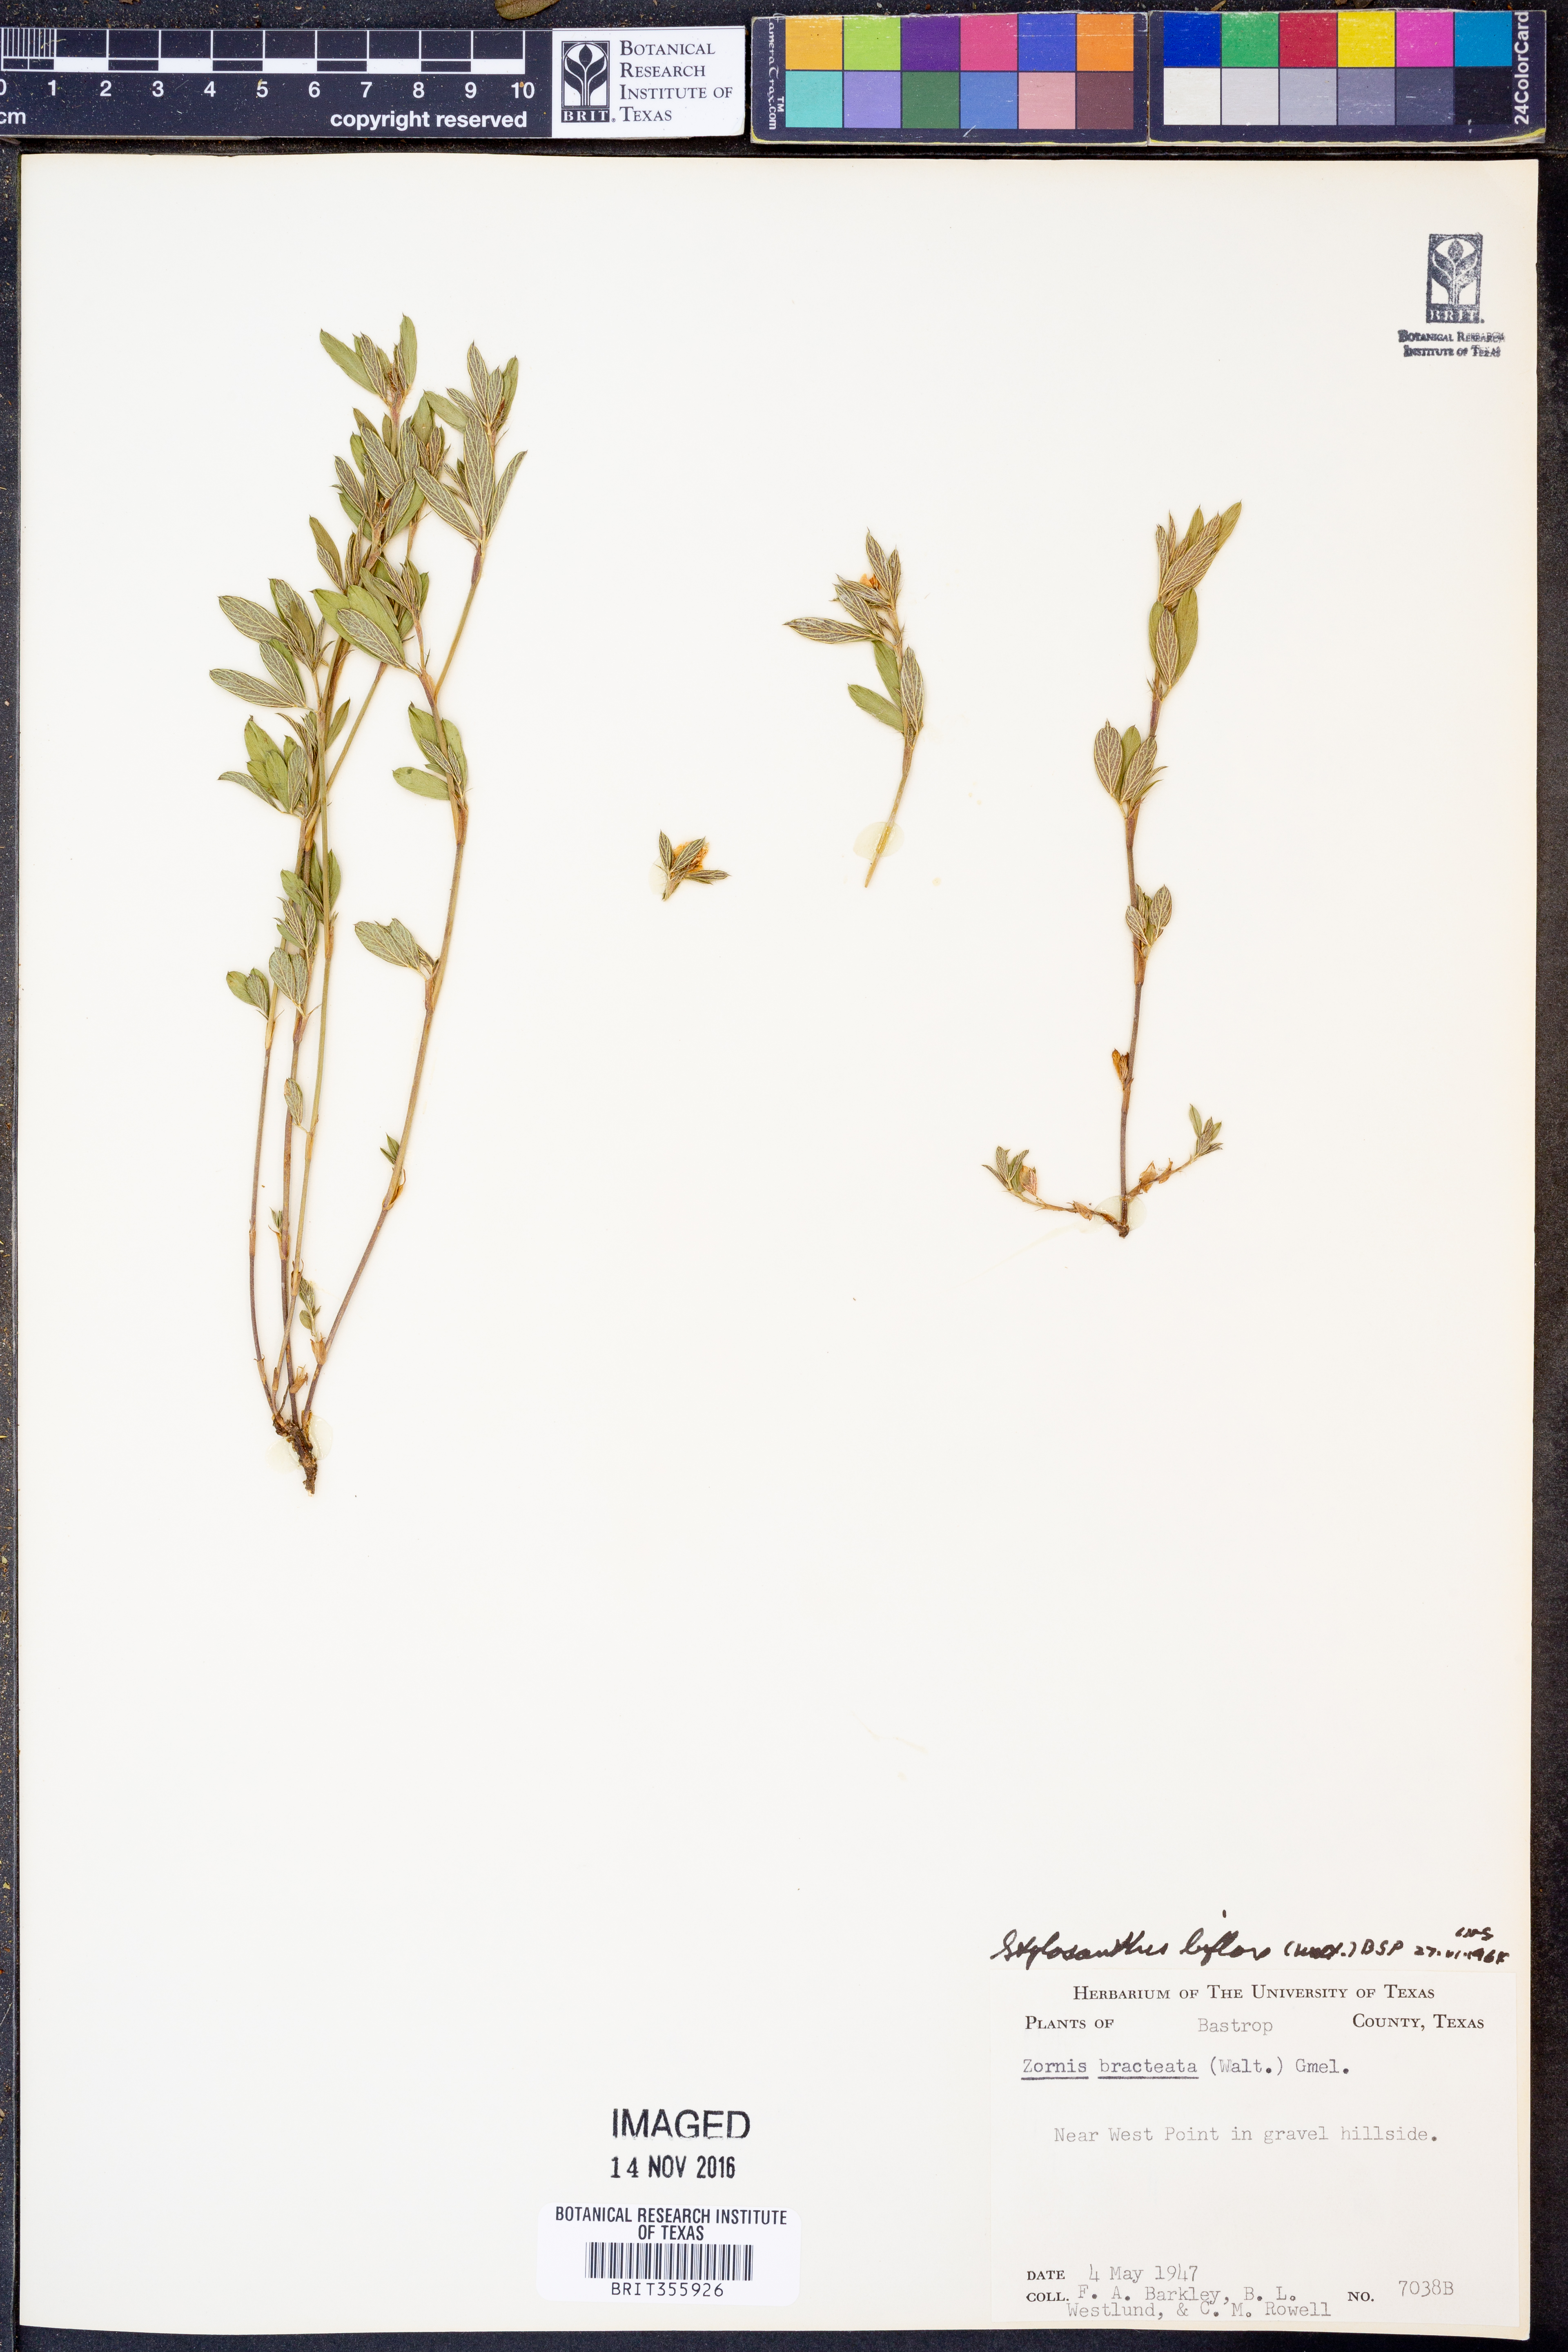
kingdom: Plantae
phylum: Tracheophyta
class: Magnoliopsida
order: Fabales
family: Fabaceae
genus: Stylosanthes
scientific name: Stylosanthes biflora
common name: Two-flower pencil-flower
